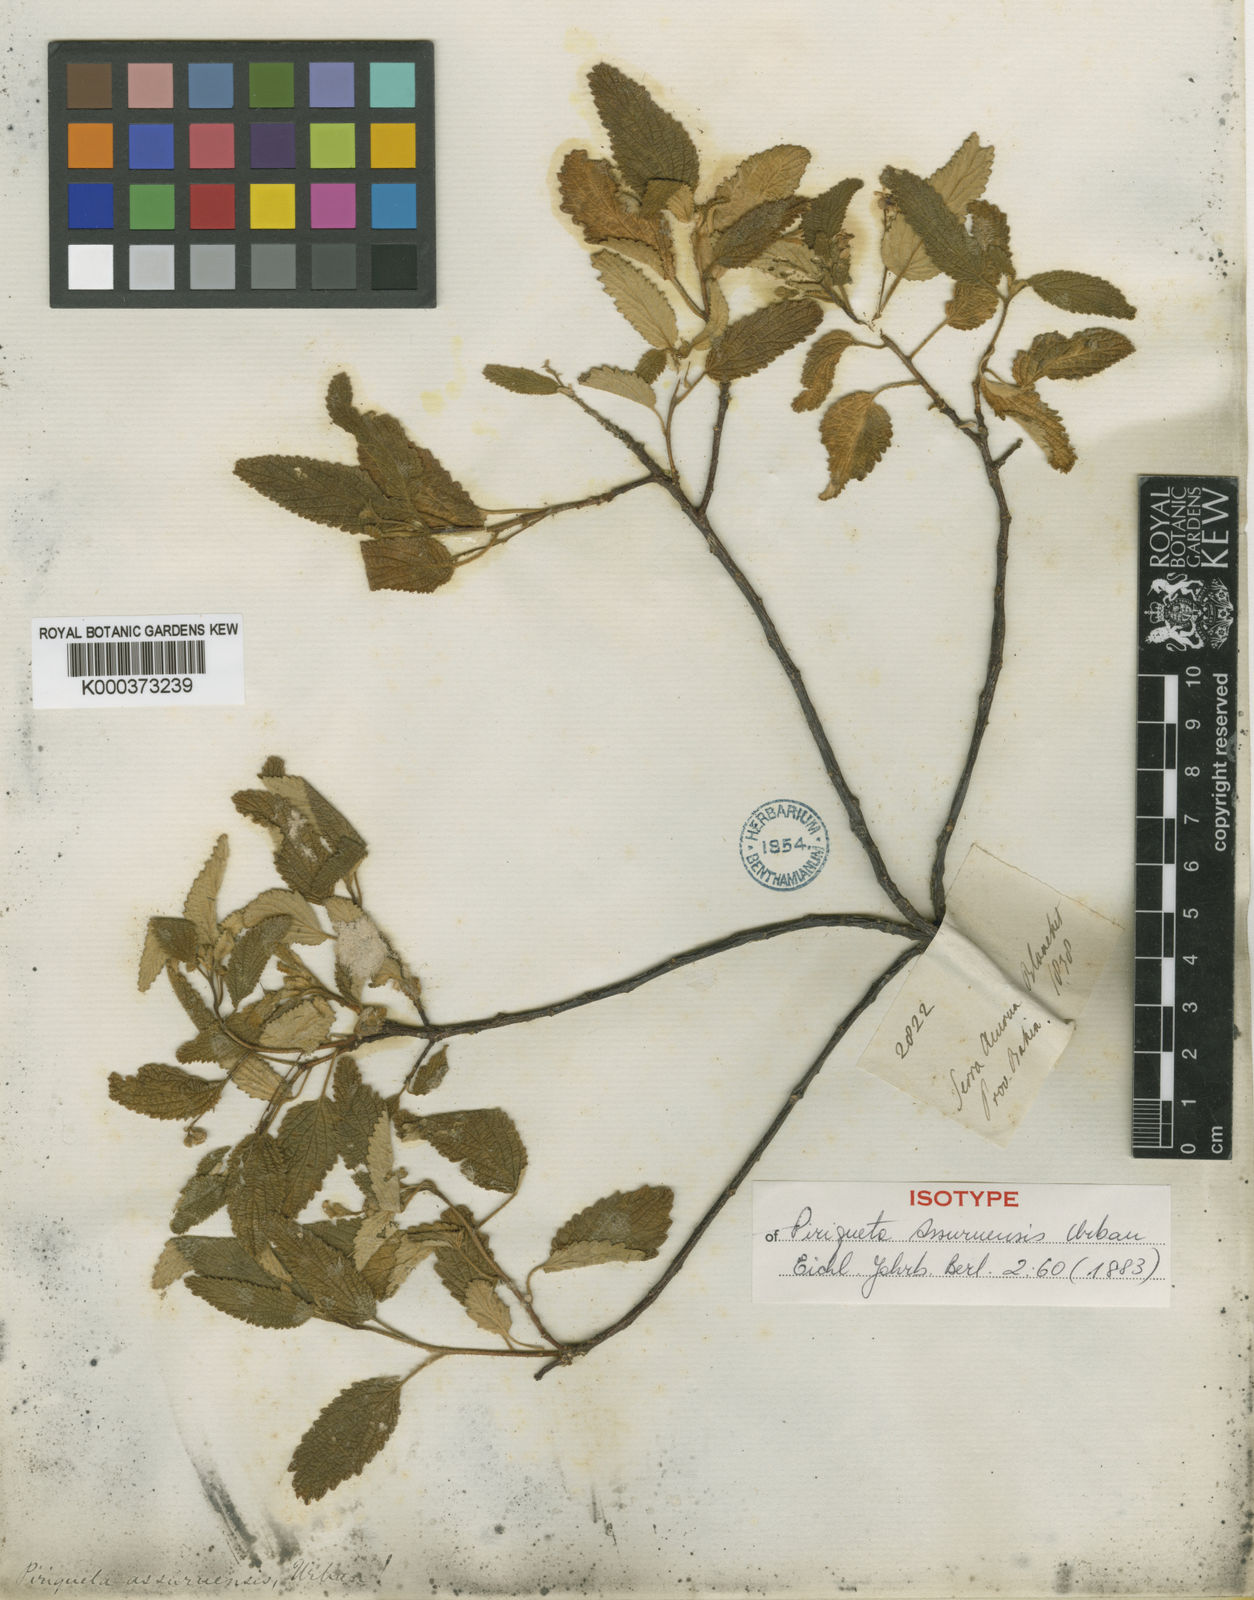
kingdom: Plantae
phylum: Tracheophyta
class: Magnoliopsida
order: Malpighiales
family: Turneraceae
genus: Piriqueta
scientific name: Piriqueta
